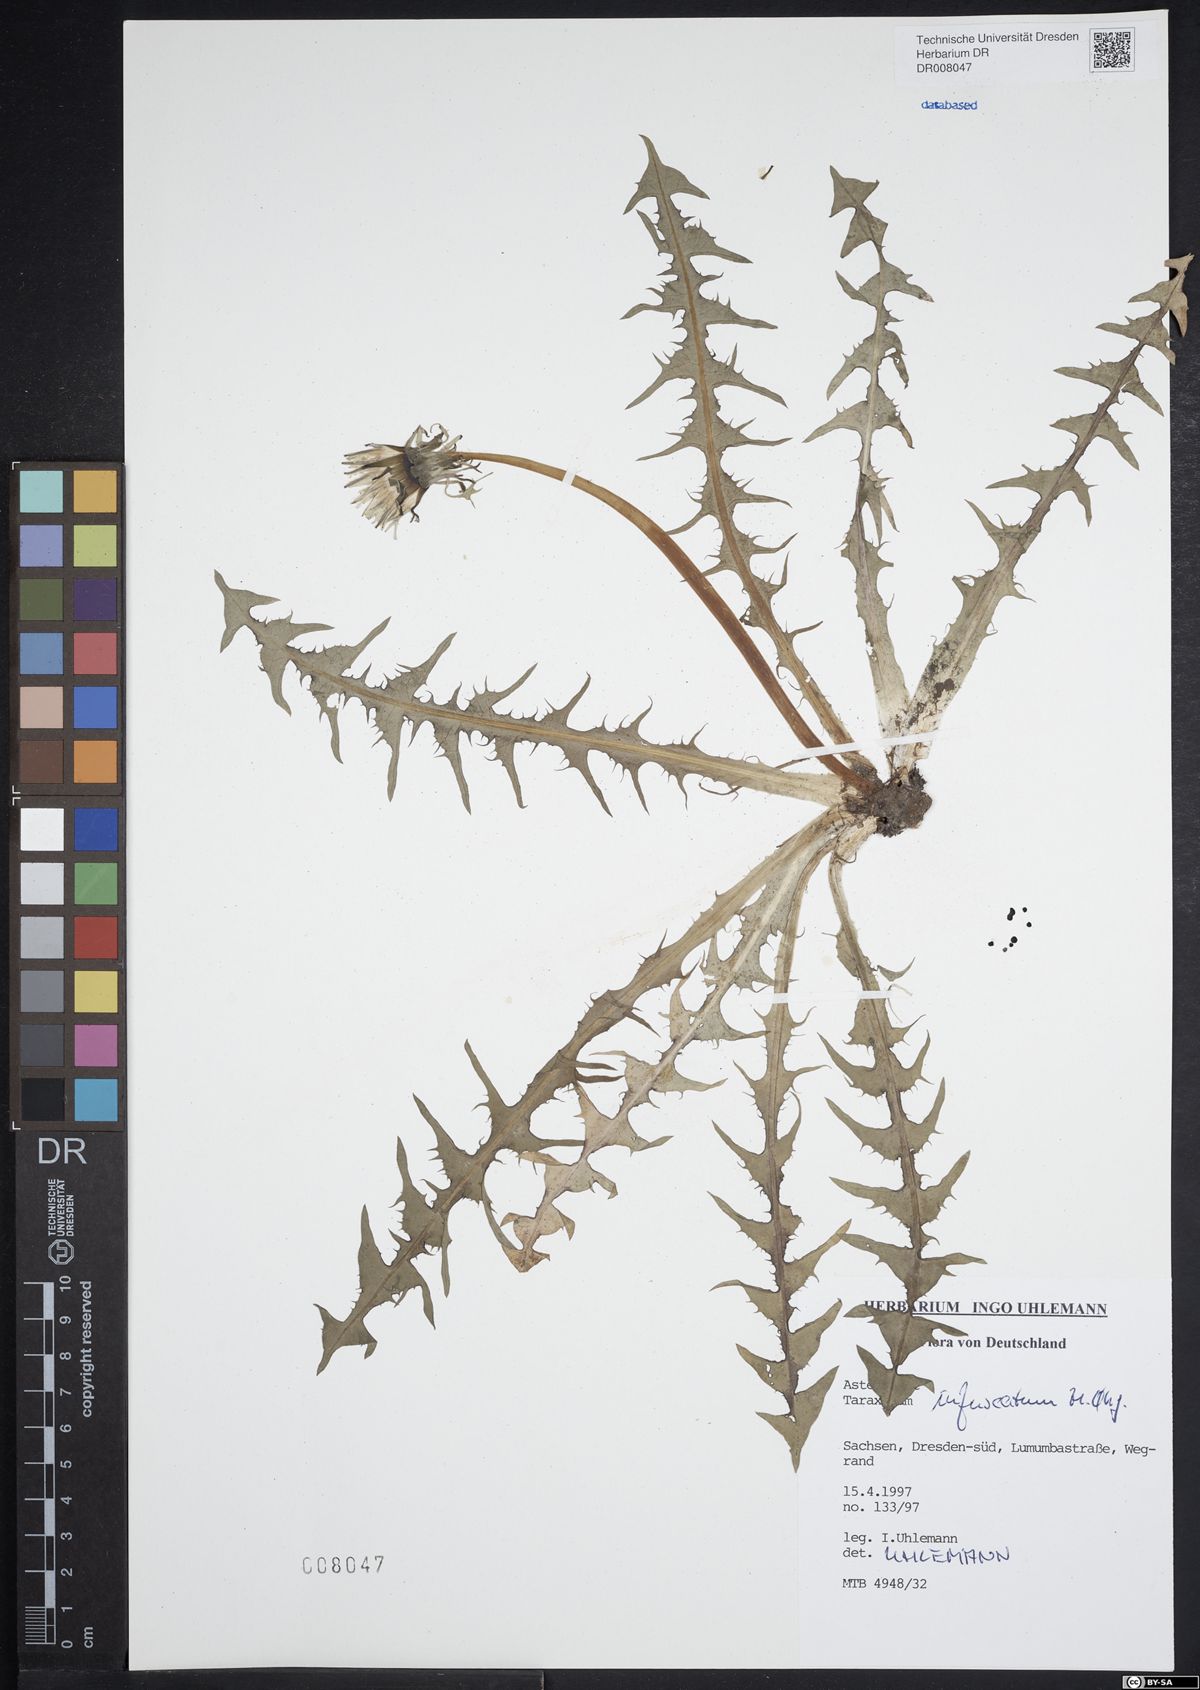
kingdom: Plantae
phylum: Tracheophyta
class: Magnoliopsida
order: Asterales
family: Asteraceae
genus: Taraxacum
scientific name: Taraxacum infuscatum
